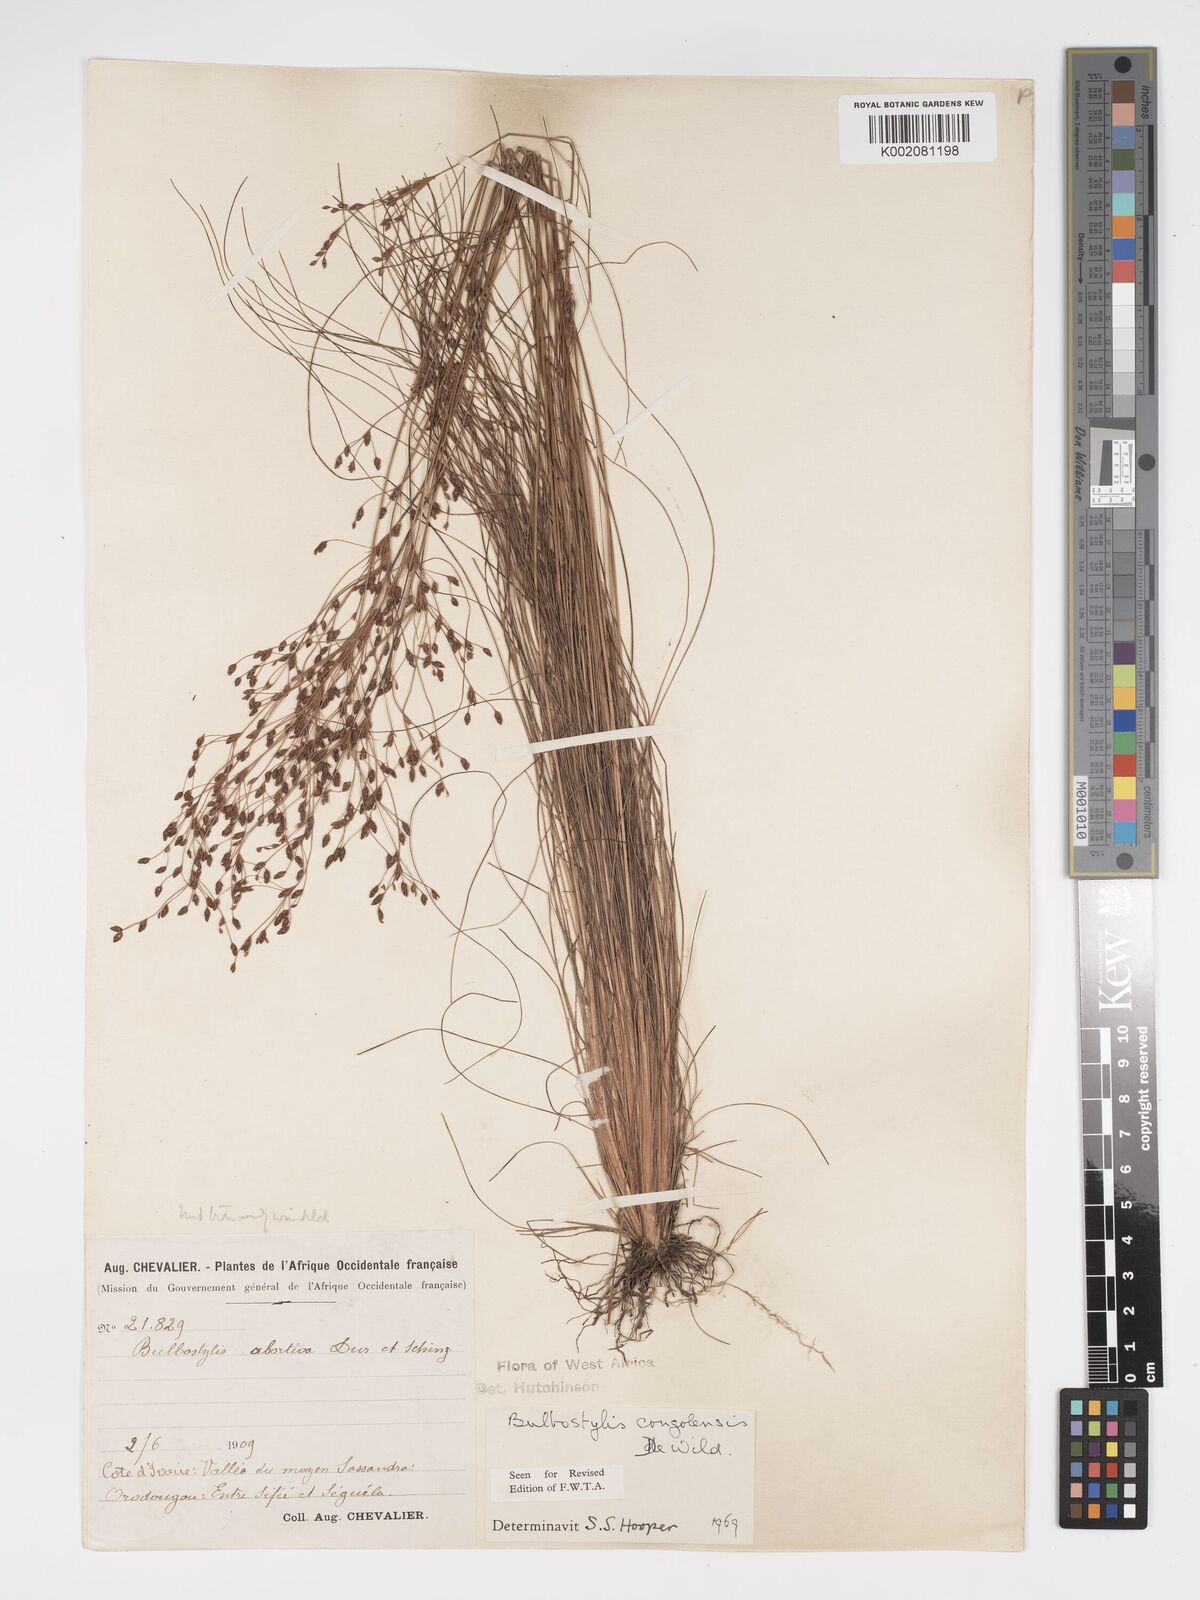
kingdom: Plantae
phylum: Tracheophyta
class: Liliopsida
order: Poales
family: Cyperaceae
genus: Bulbostylis
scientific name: Bulbostylis congolensis
